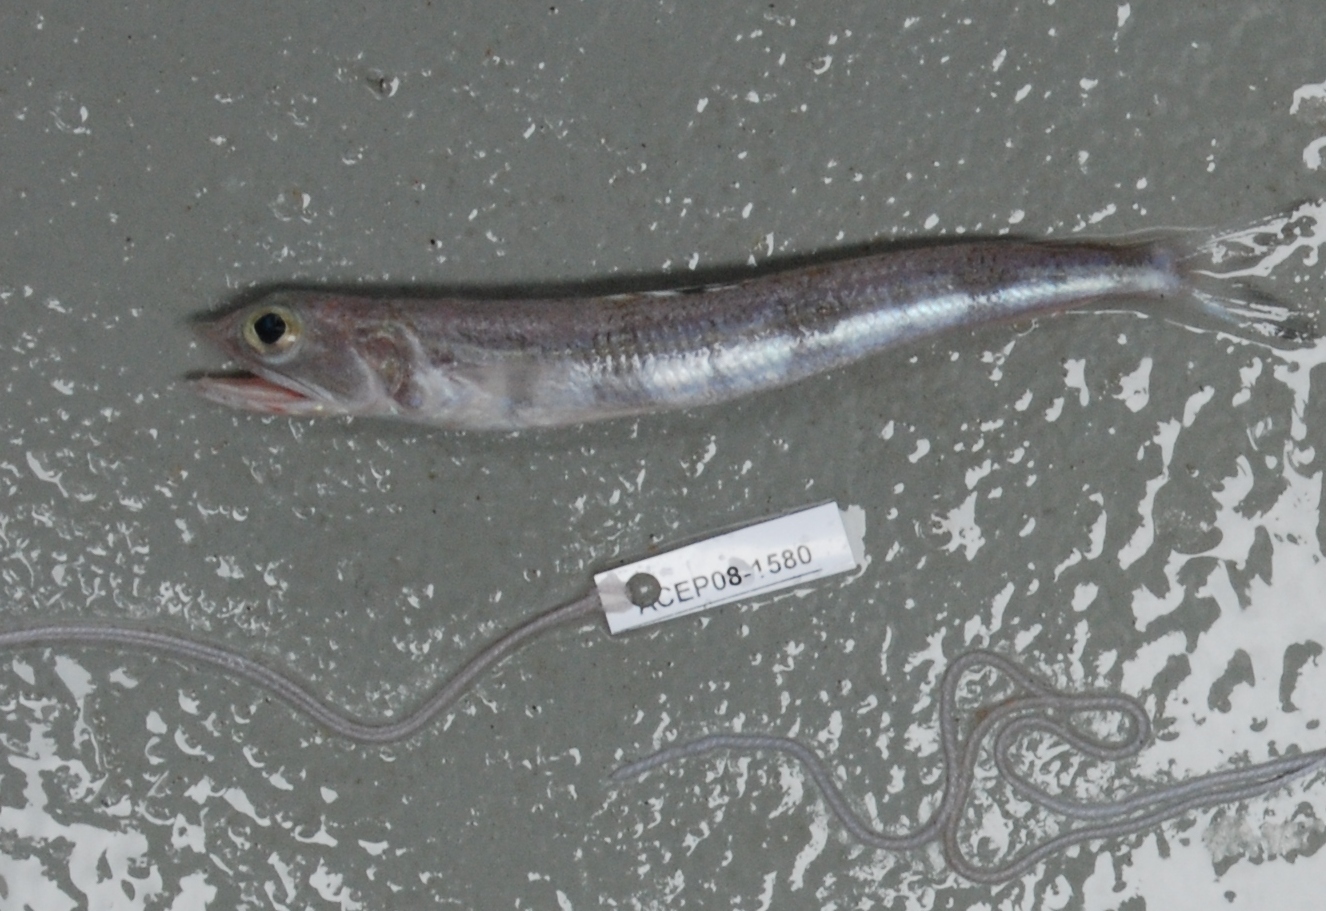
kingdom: Animalia
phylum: Chordata
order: Aulopiformes
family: Synodontidae
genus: Synodus
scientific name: Synodus macrocephalus
